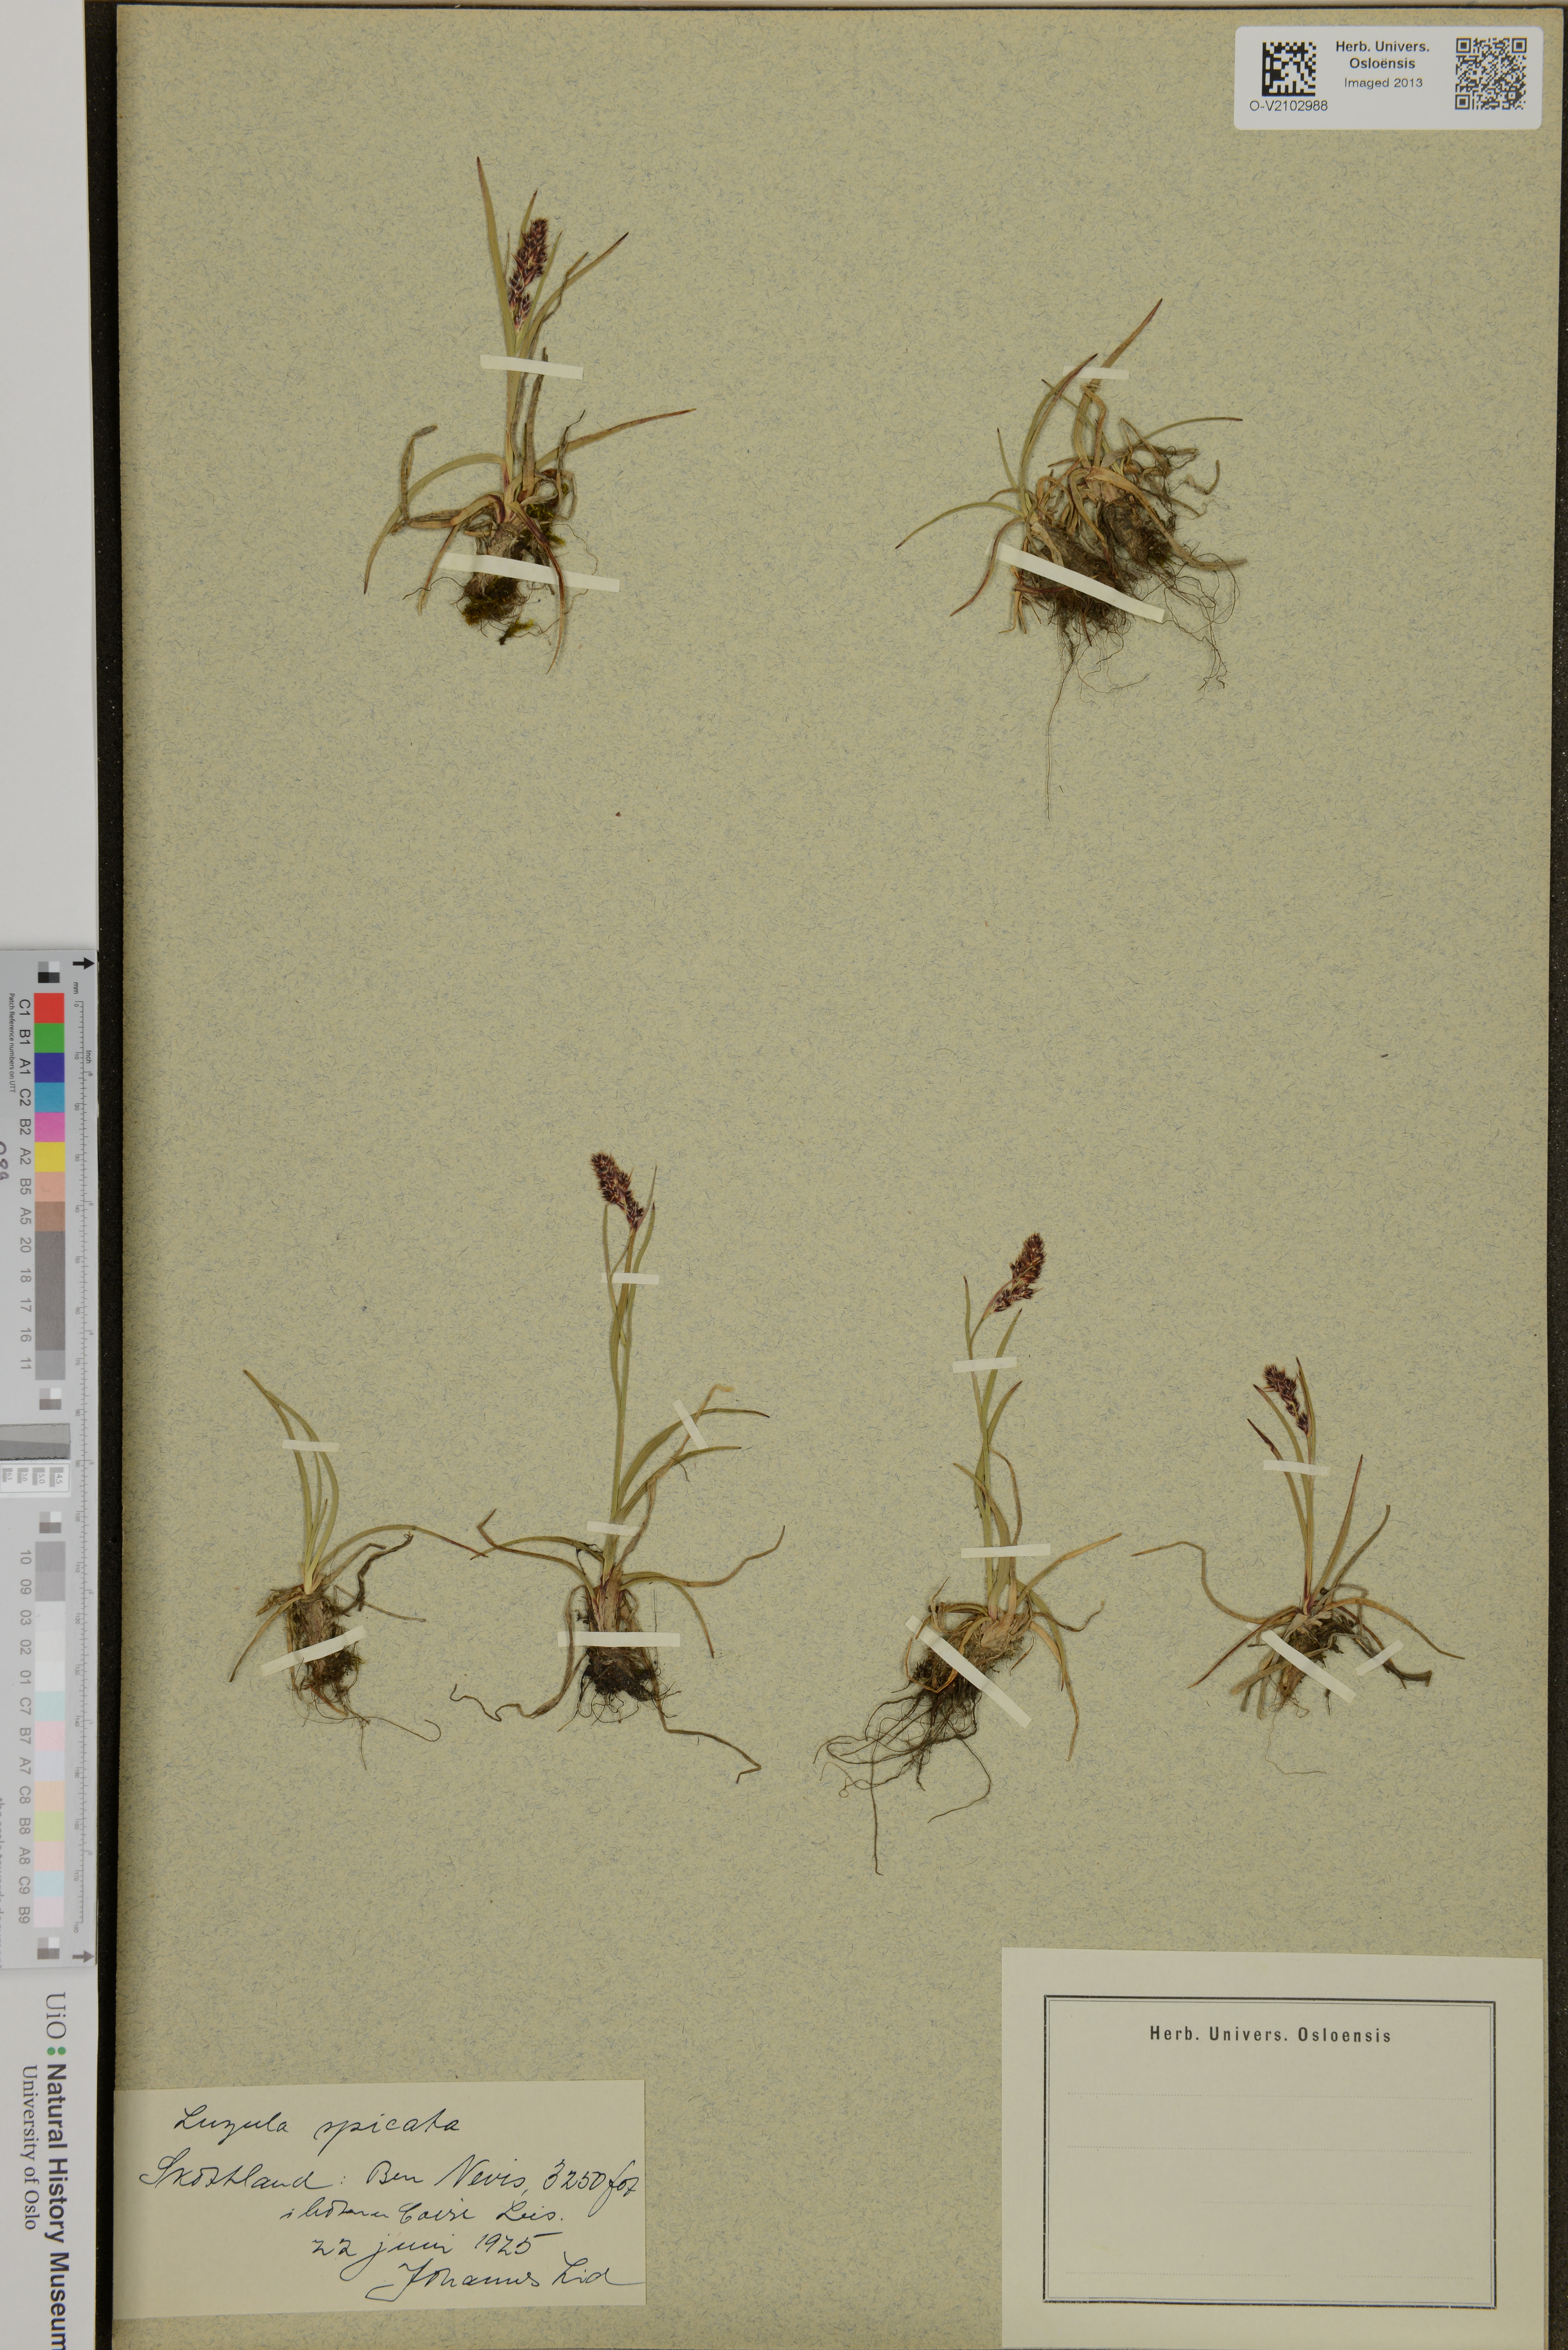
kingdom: Plantae
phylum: Tracheophyta
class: Liliopsida
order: Poales
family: Juncaceae
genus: Luzula
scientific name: Luzula spicata
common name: Spiked wood-rush
